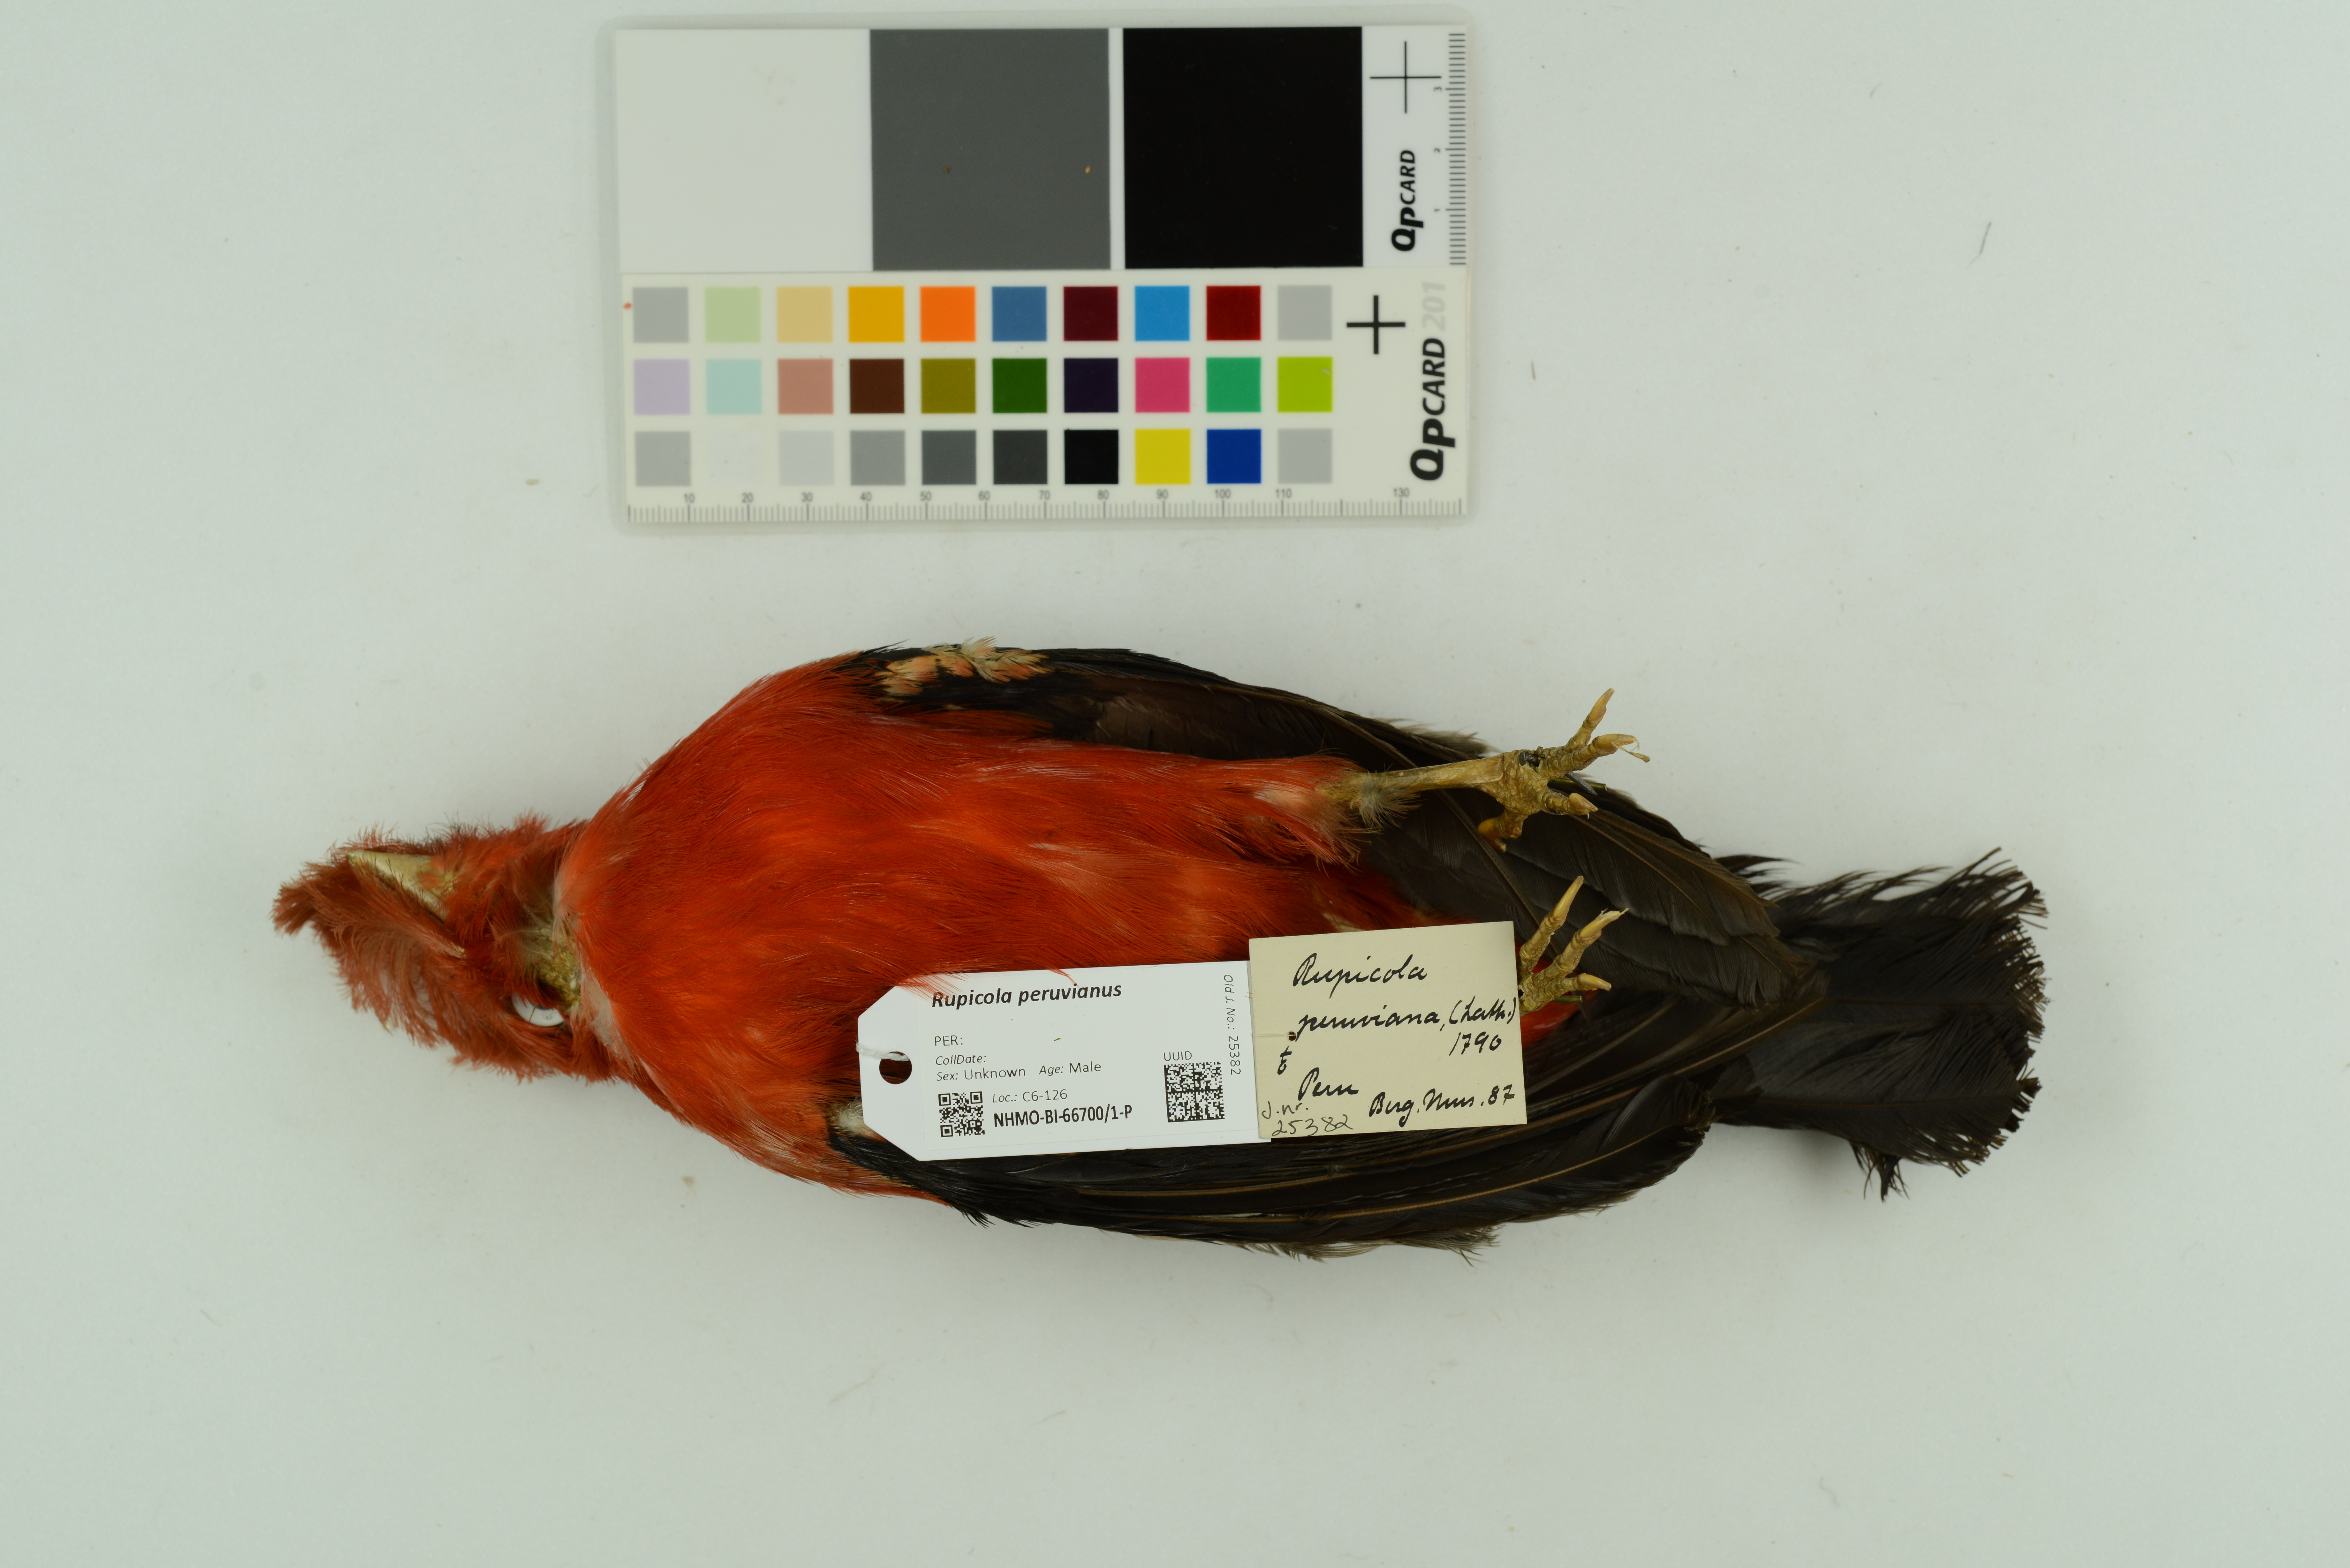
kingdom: Animalia
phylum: Chordata
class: Aves
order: Passeriformes
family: Cotingidae
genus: Rupicola
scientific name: Rupicola peruvianus
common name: Andean cock-of-the-rock
